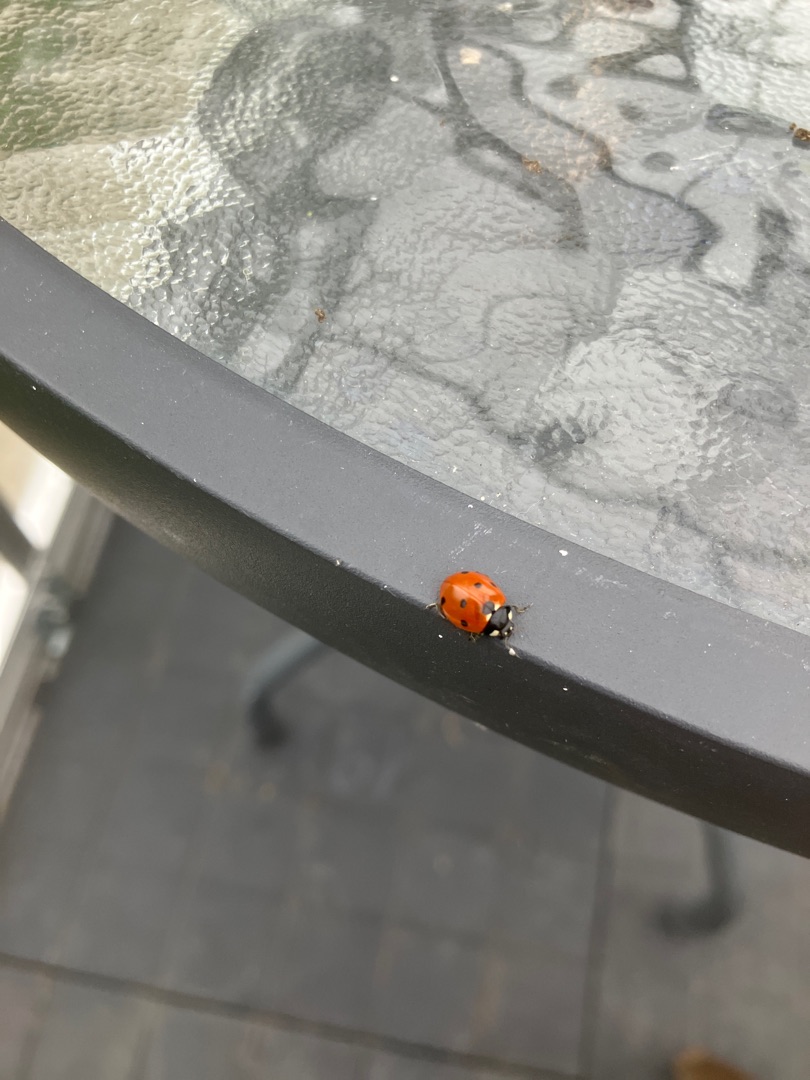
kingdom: Animalia
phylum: Arthropoda
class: Insecta
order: Coleoptera
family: Coccinellidae
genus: Coccinella
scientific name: Coccinella septempunctata
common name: Syvplettet mariehøne
